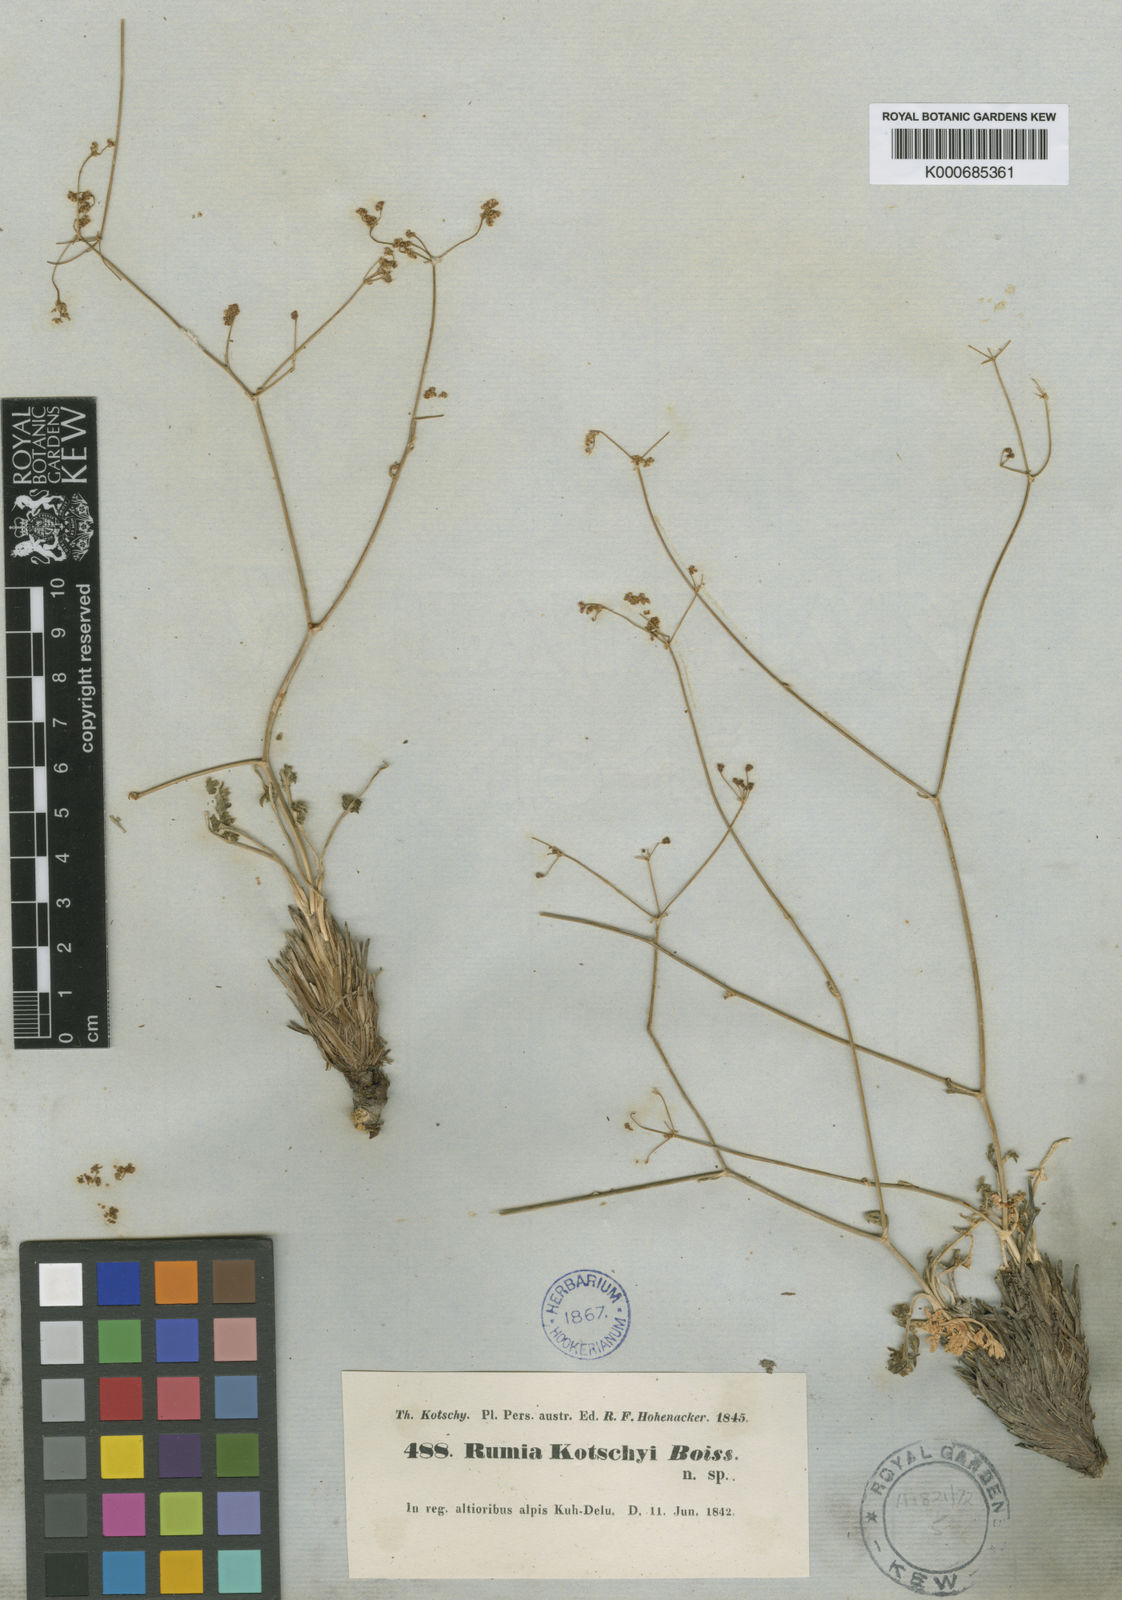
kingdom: Plantae
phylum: Tracheophyta
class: Magnoliopsida
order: Apiales
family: Apiaceae
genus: Pseudotrachydium
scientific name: Pseudotrachydium kotschyi
